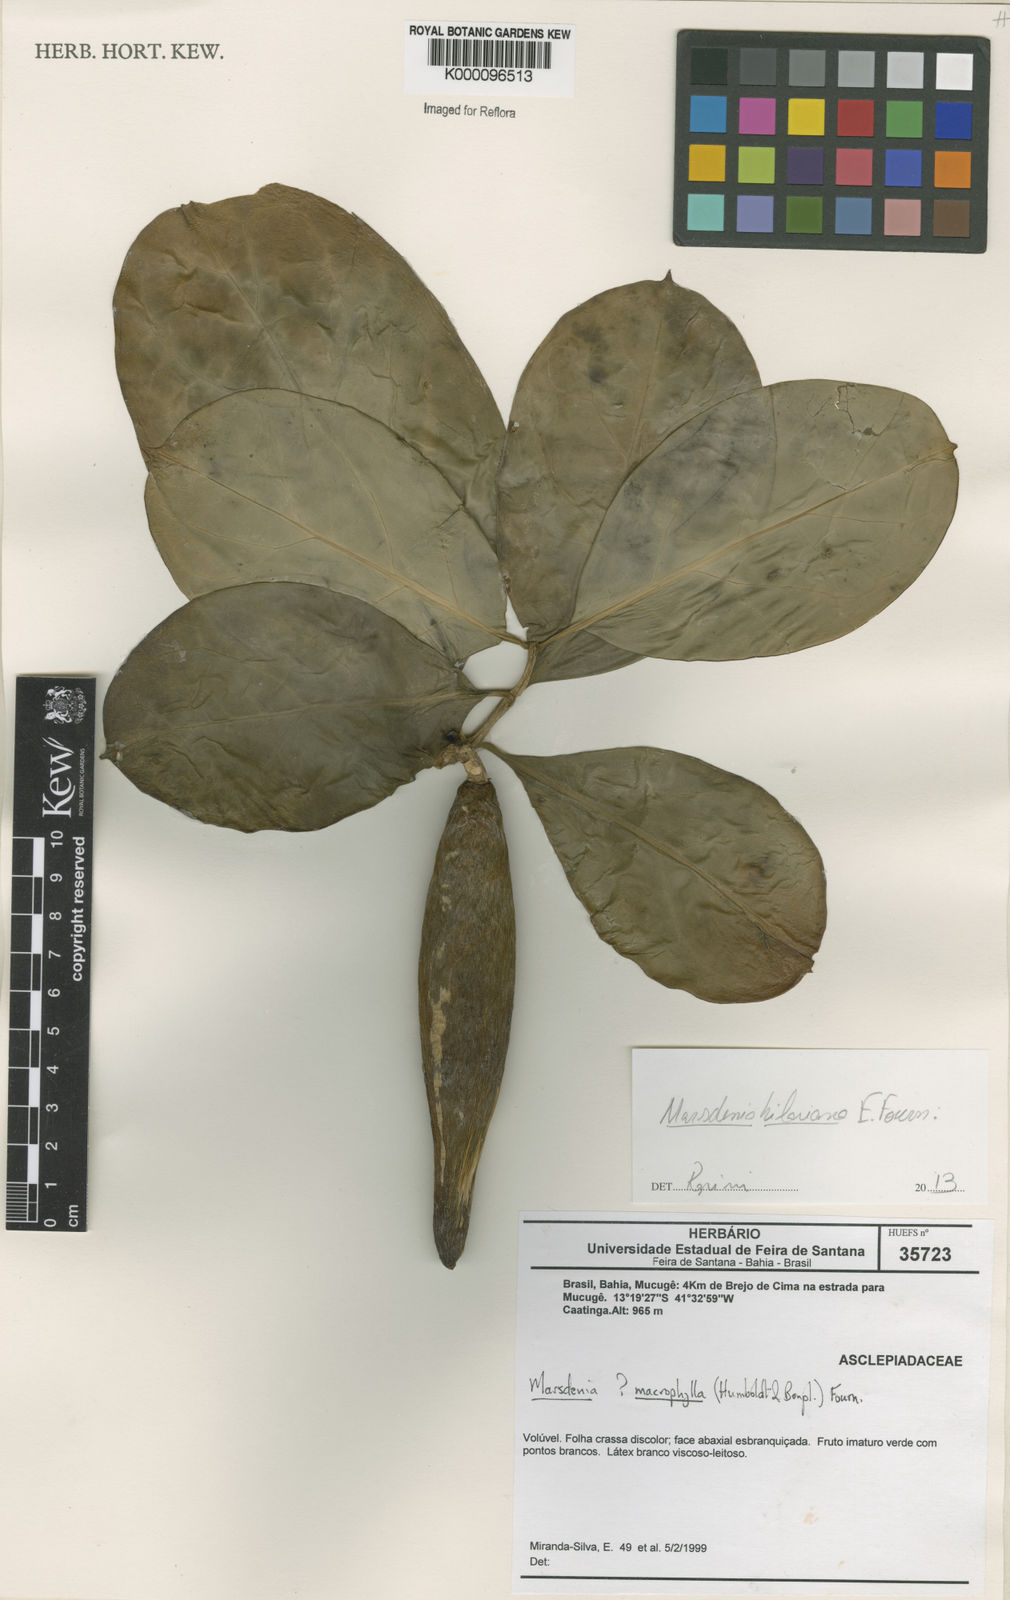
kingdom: Plantae
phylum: Tracheophyta
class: Magnoliopsida
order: Gentianales
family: Apocynaceae
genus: Marsdenia
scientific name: Marsdenia
